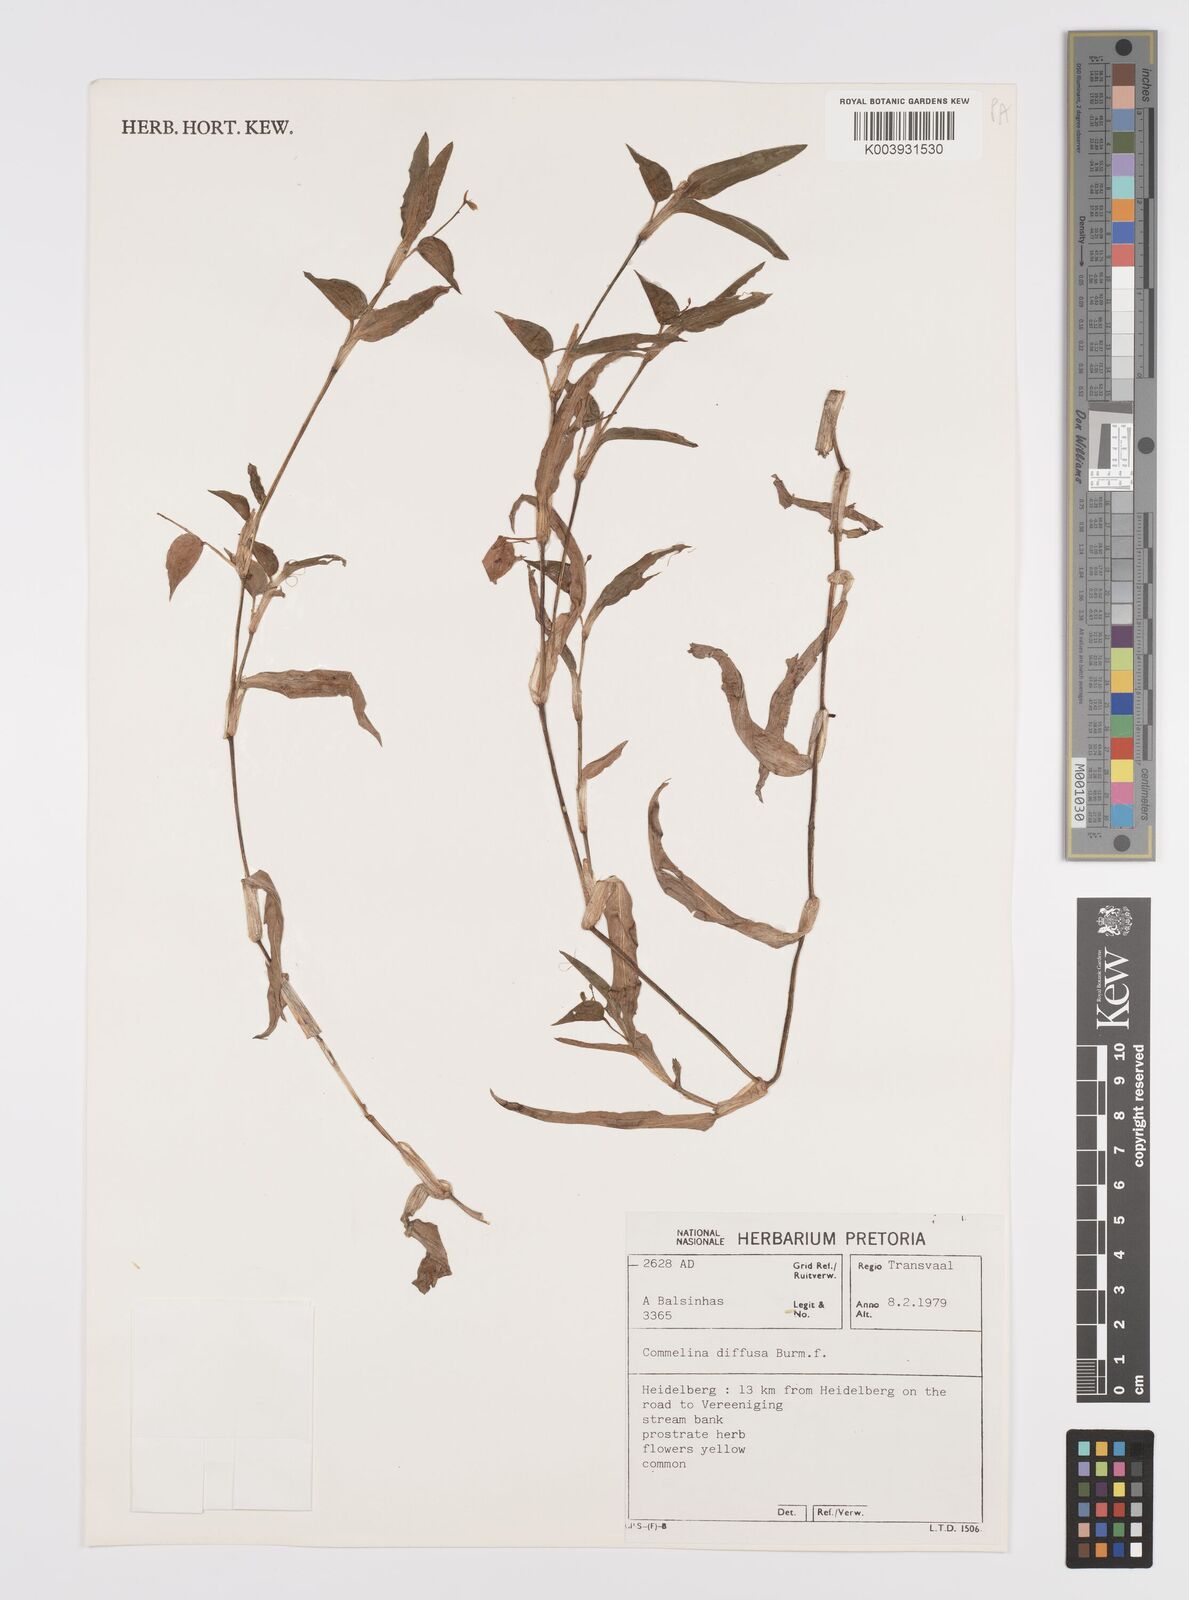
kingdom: Plantae
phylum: Tracheophyta
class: Liliopsida
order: Commelinales
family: Commelinaceae
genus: Commelina
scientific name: Commelina diffusa
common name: Climbing dayflower
